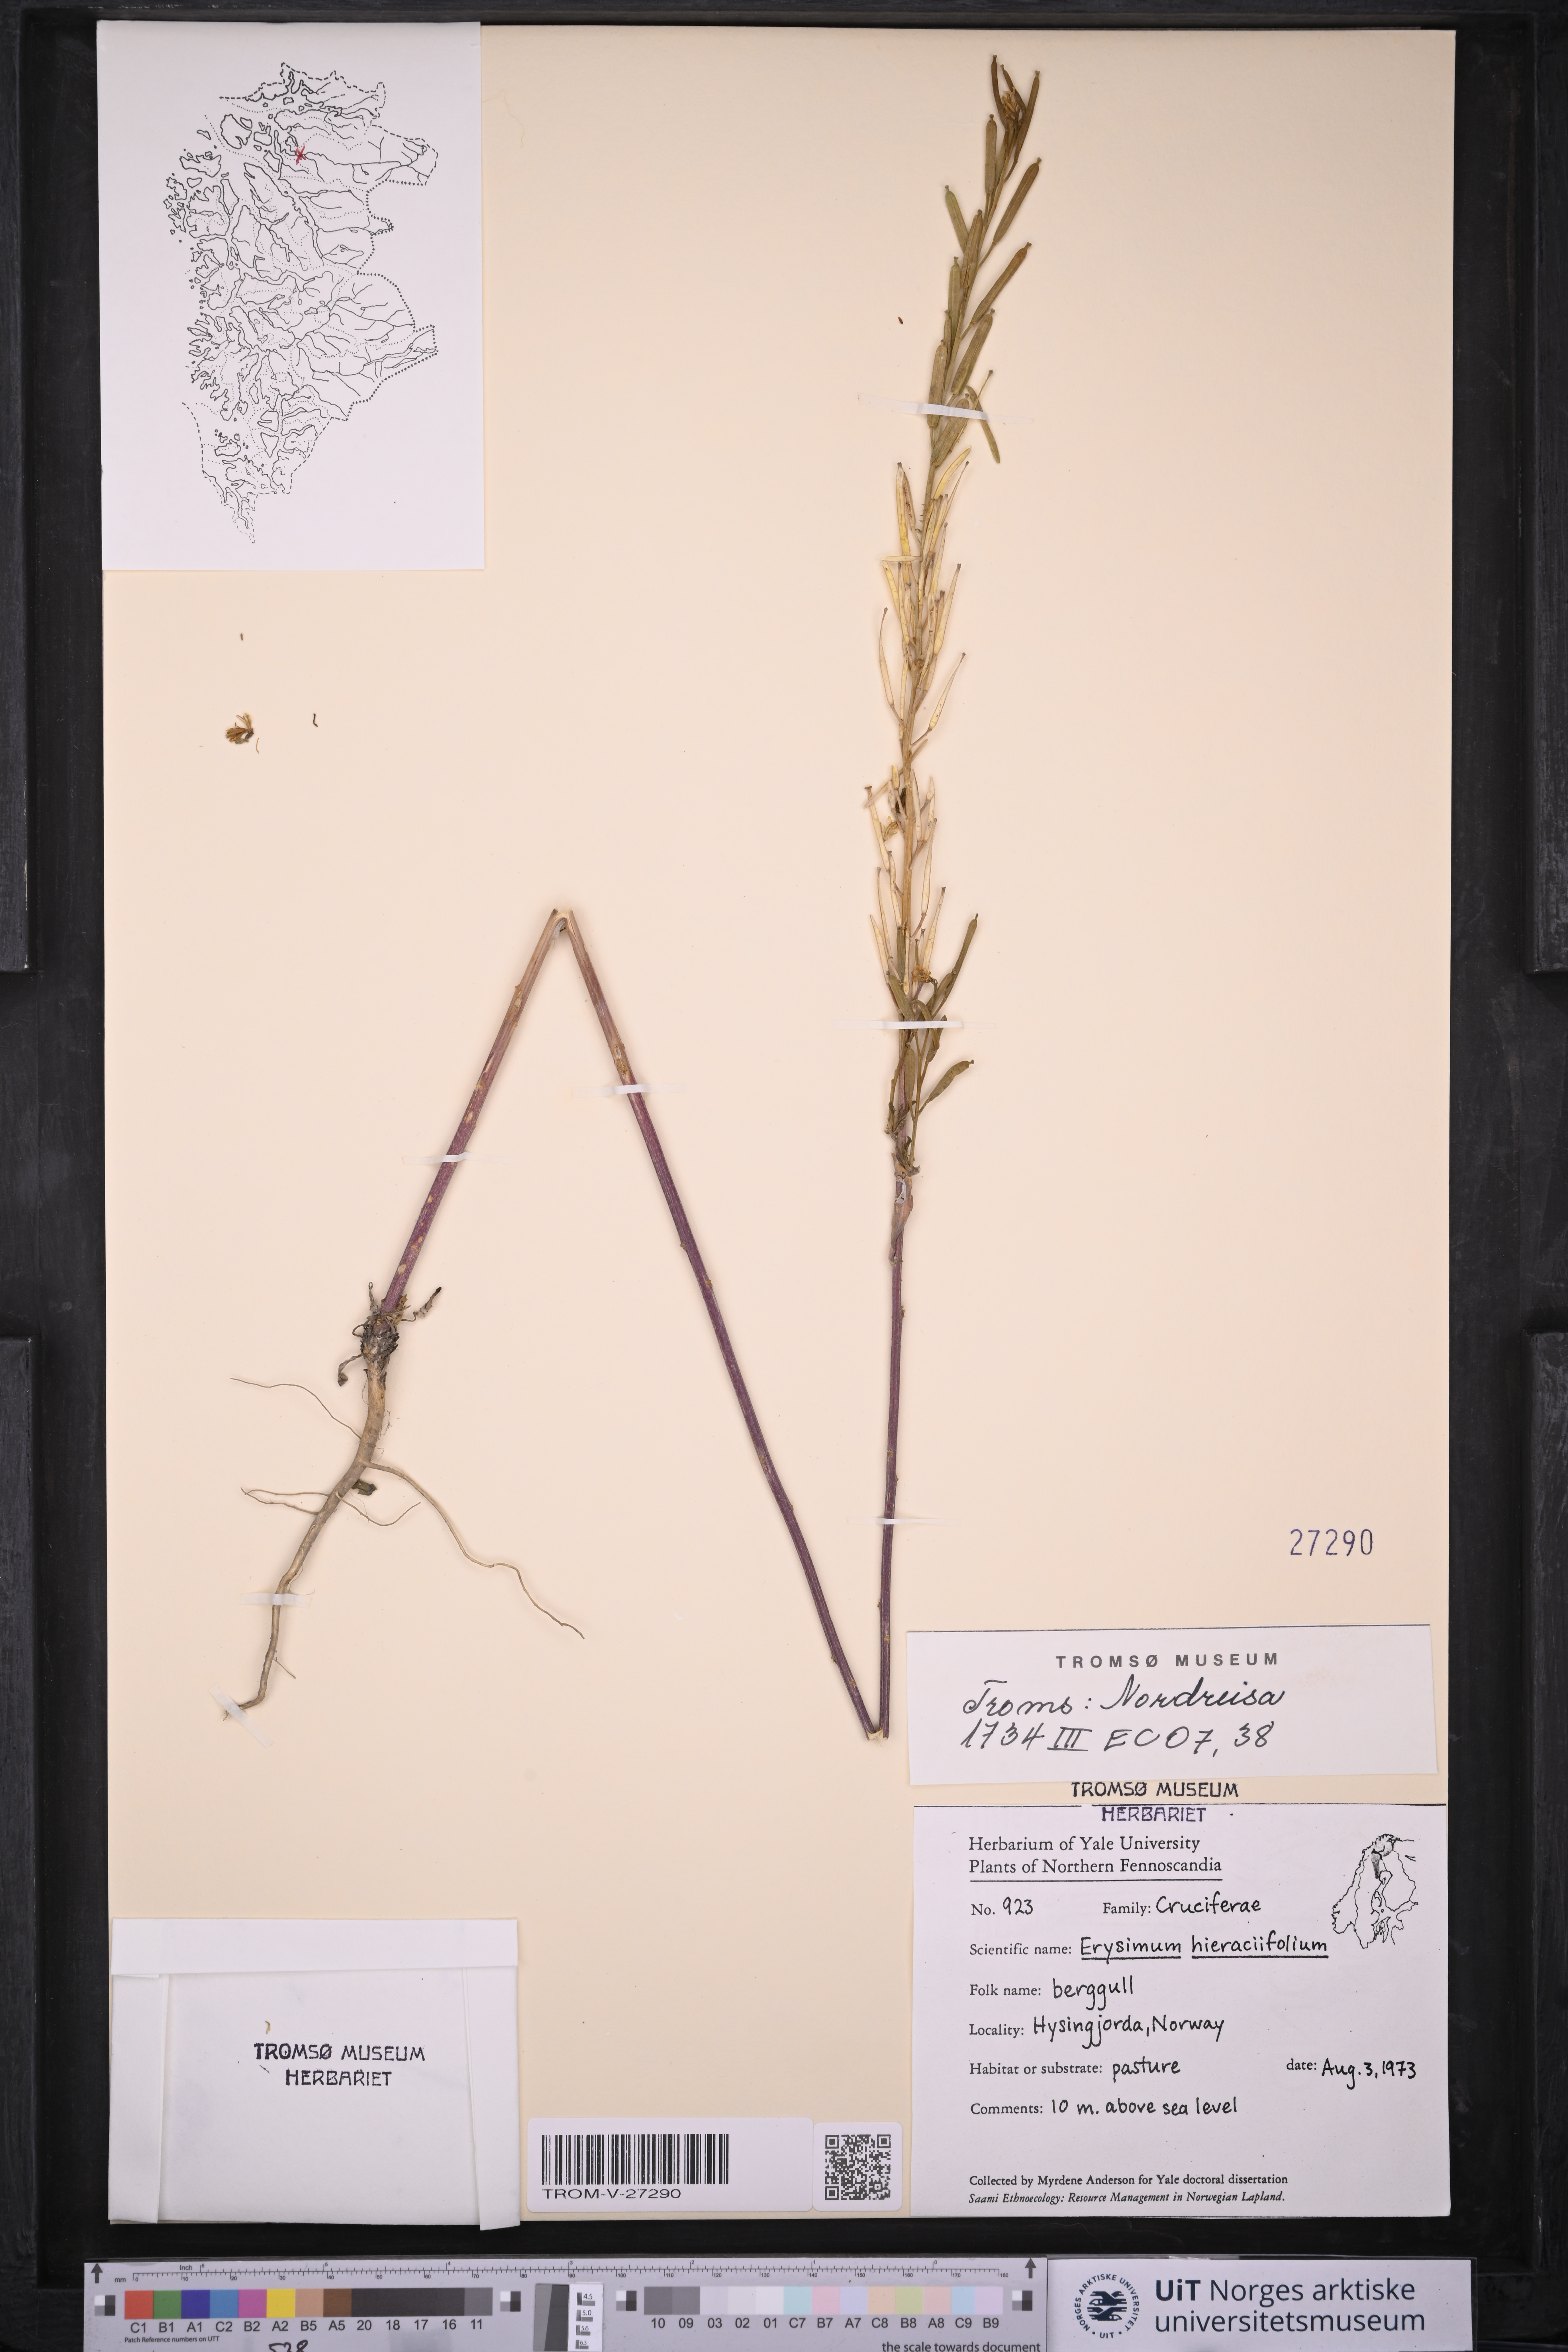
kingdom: Plantae
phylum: Tracheophyta
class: Magnoliopsida
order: Brassicales
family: Brassicaceae
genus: Erysimum
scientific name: Erysimum virgatum
